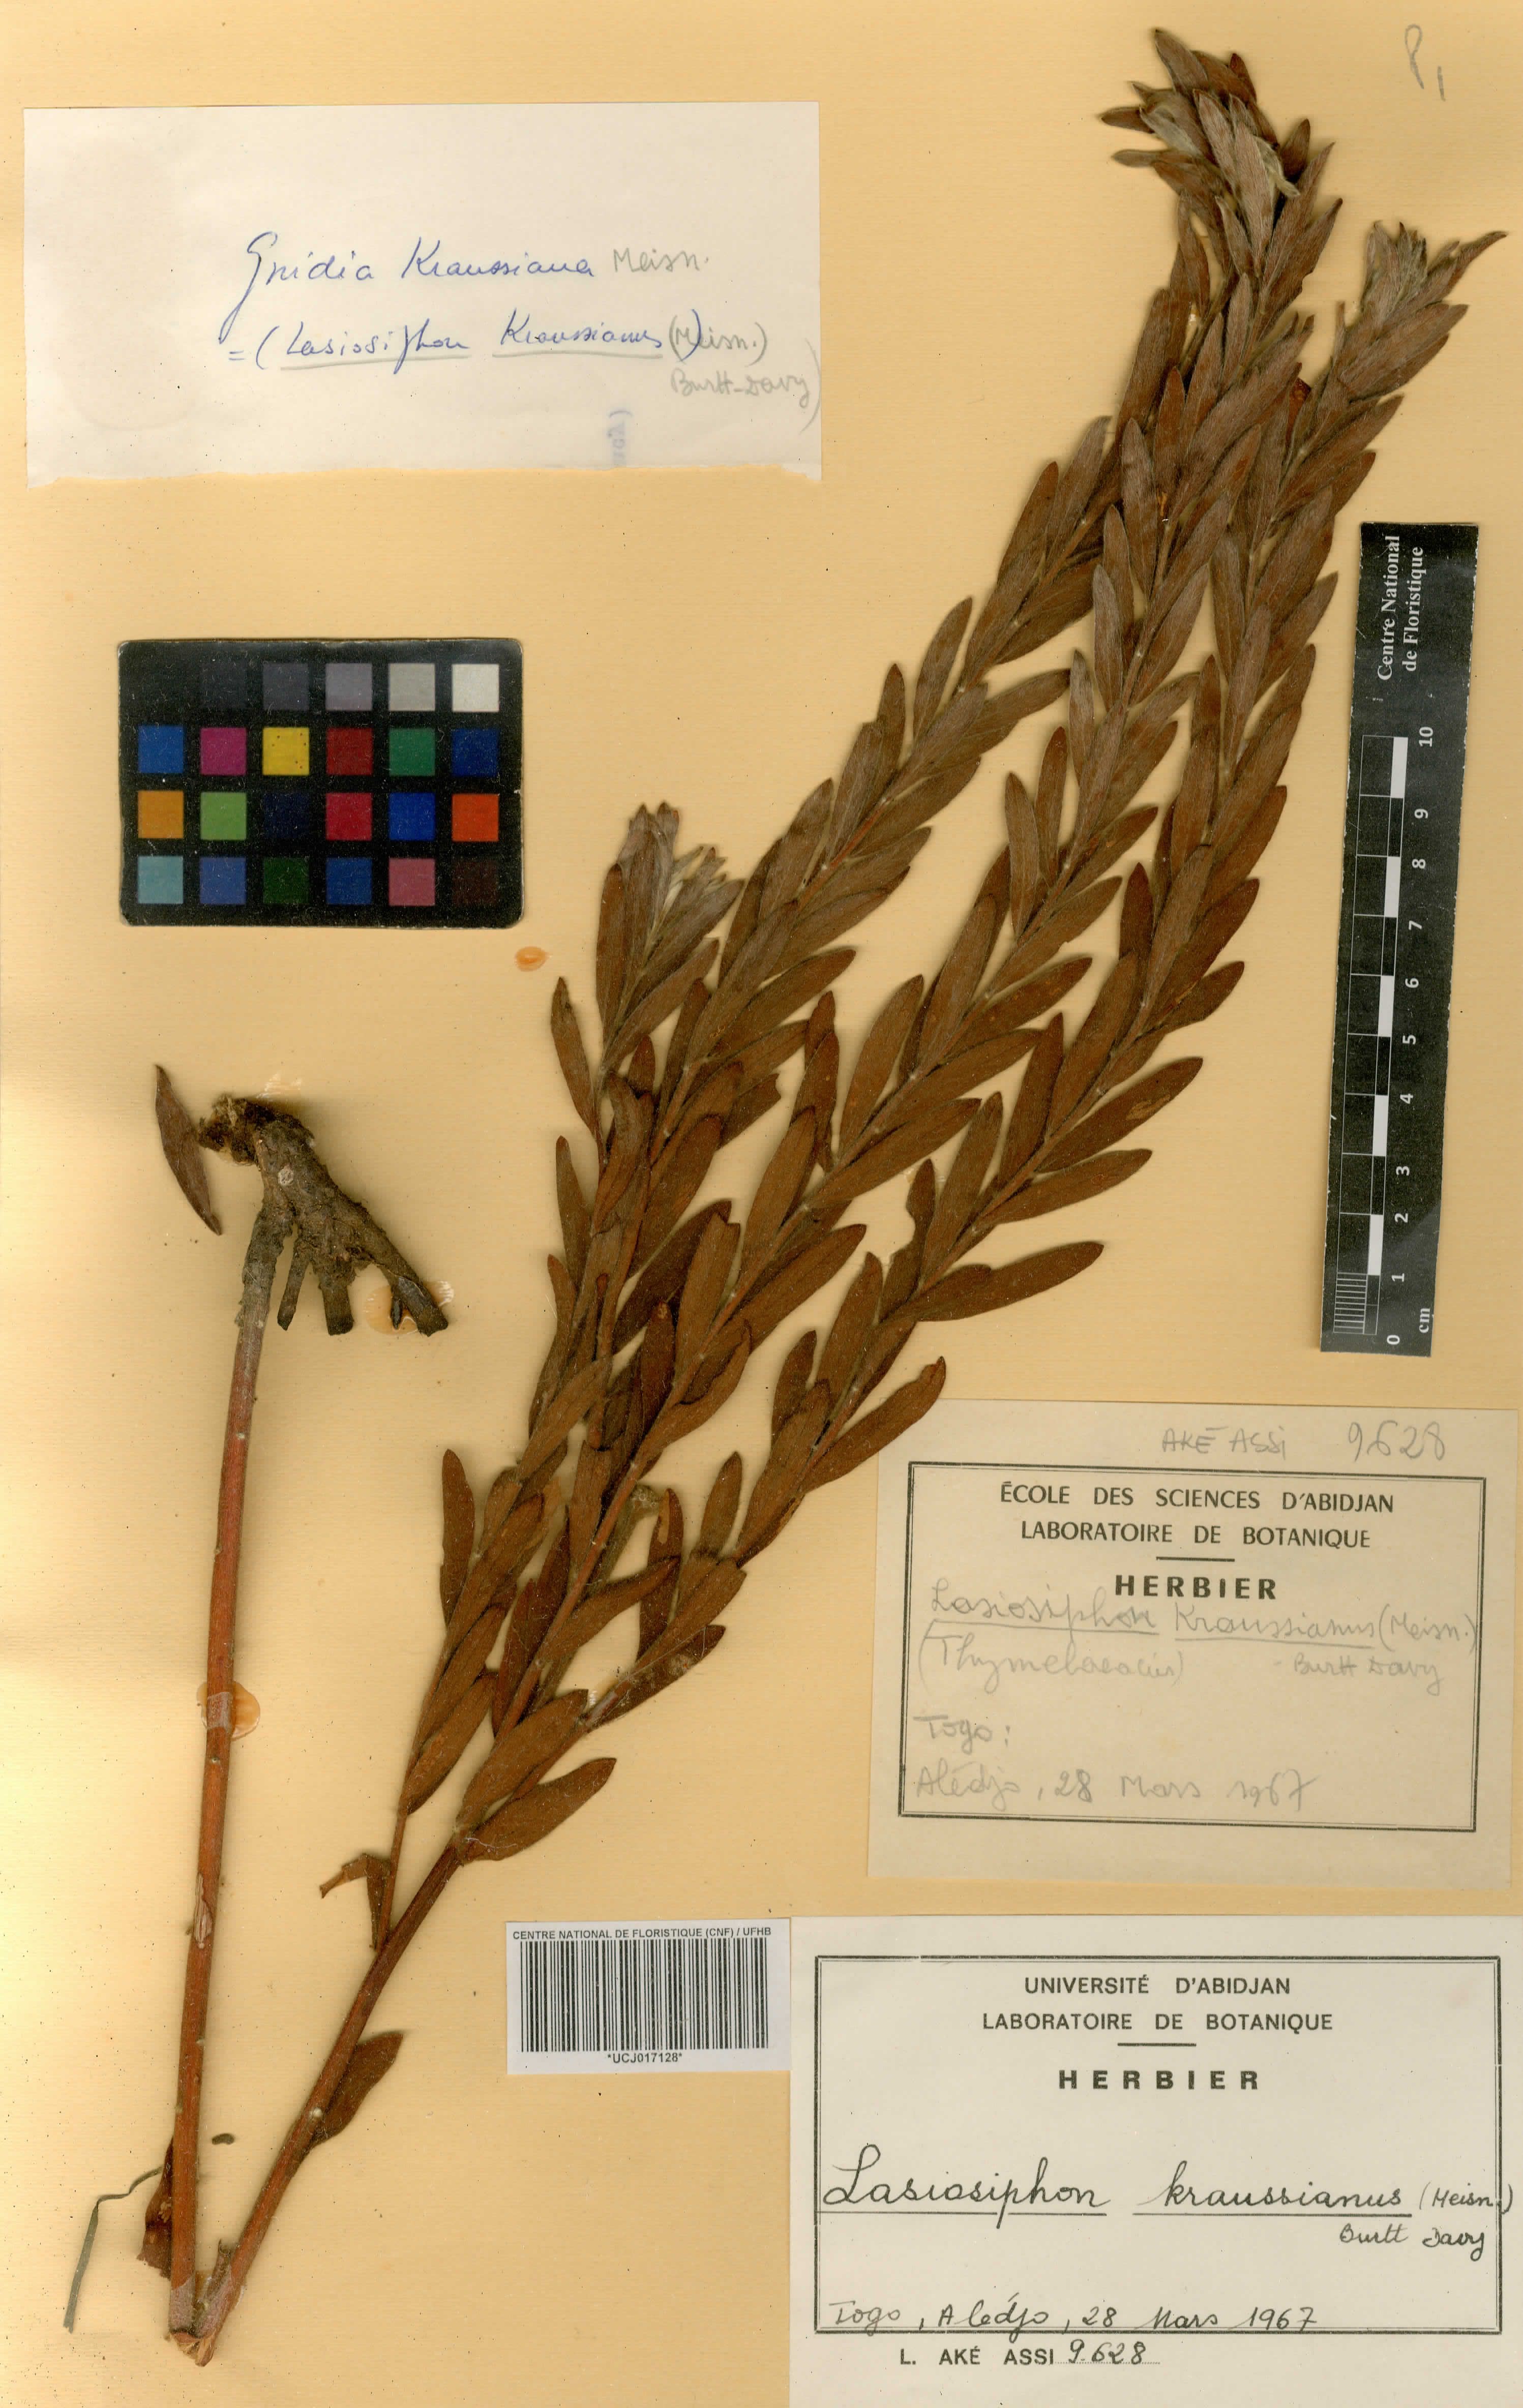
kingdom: Plantae
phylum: Tracheophyta
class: Magnoliopsida
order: Malvales
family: Thymelaeaceae
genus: Gnidia
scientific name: Gnidia kraussiana
